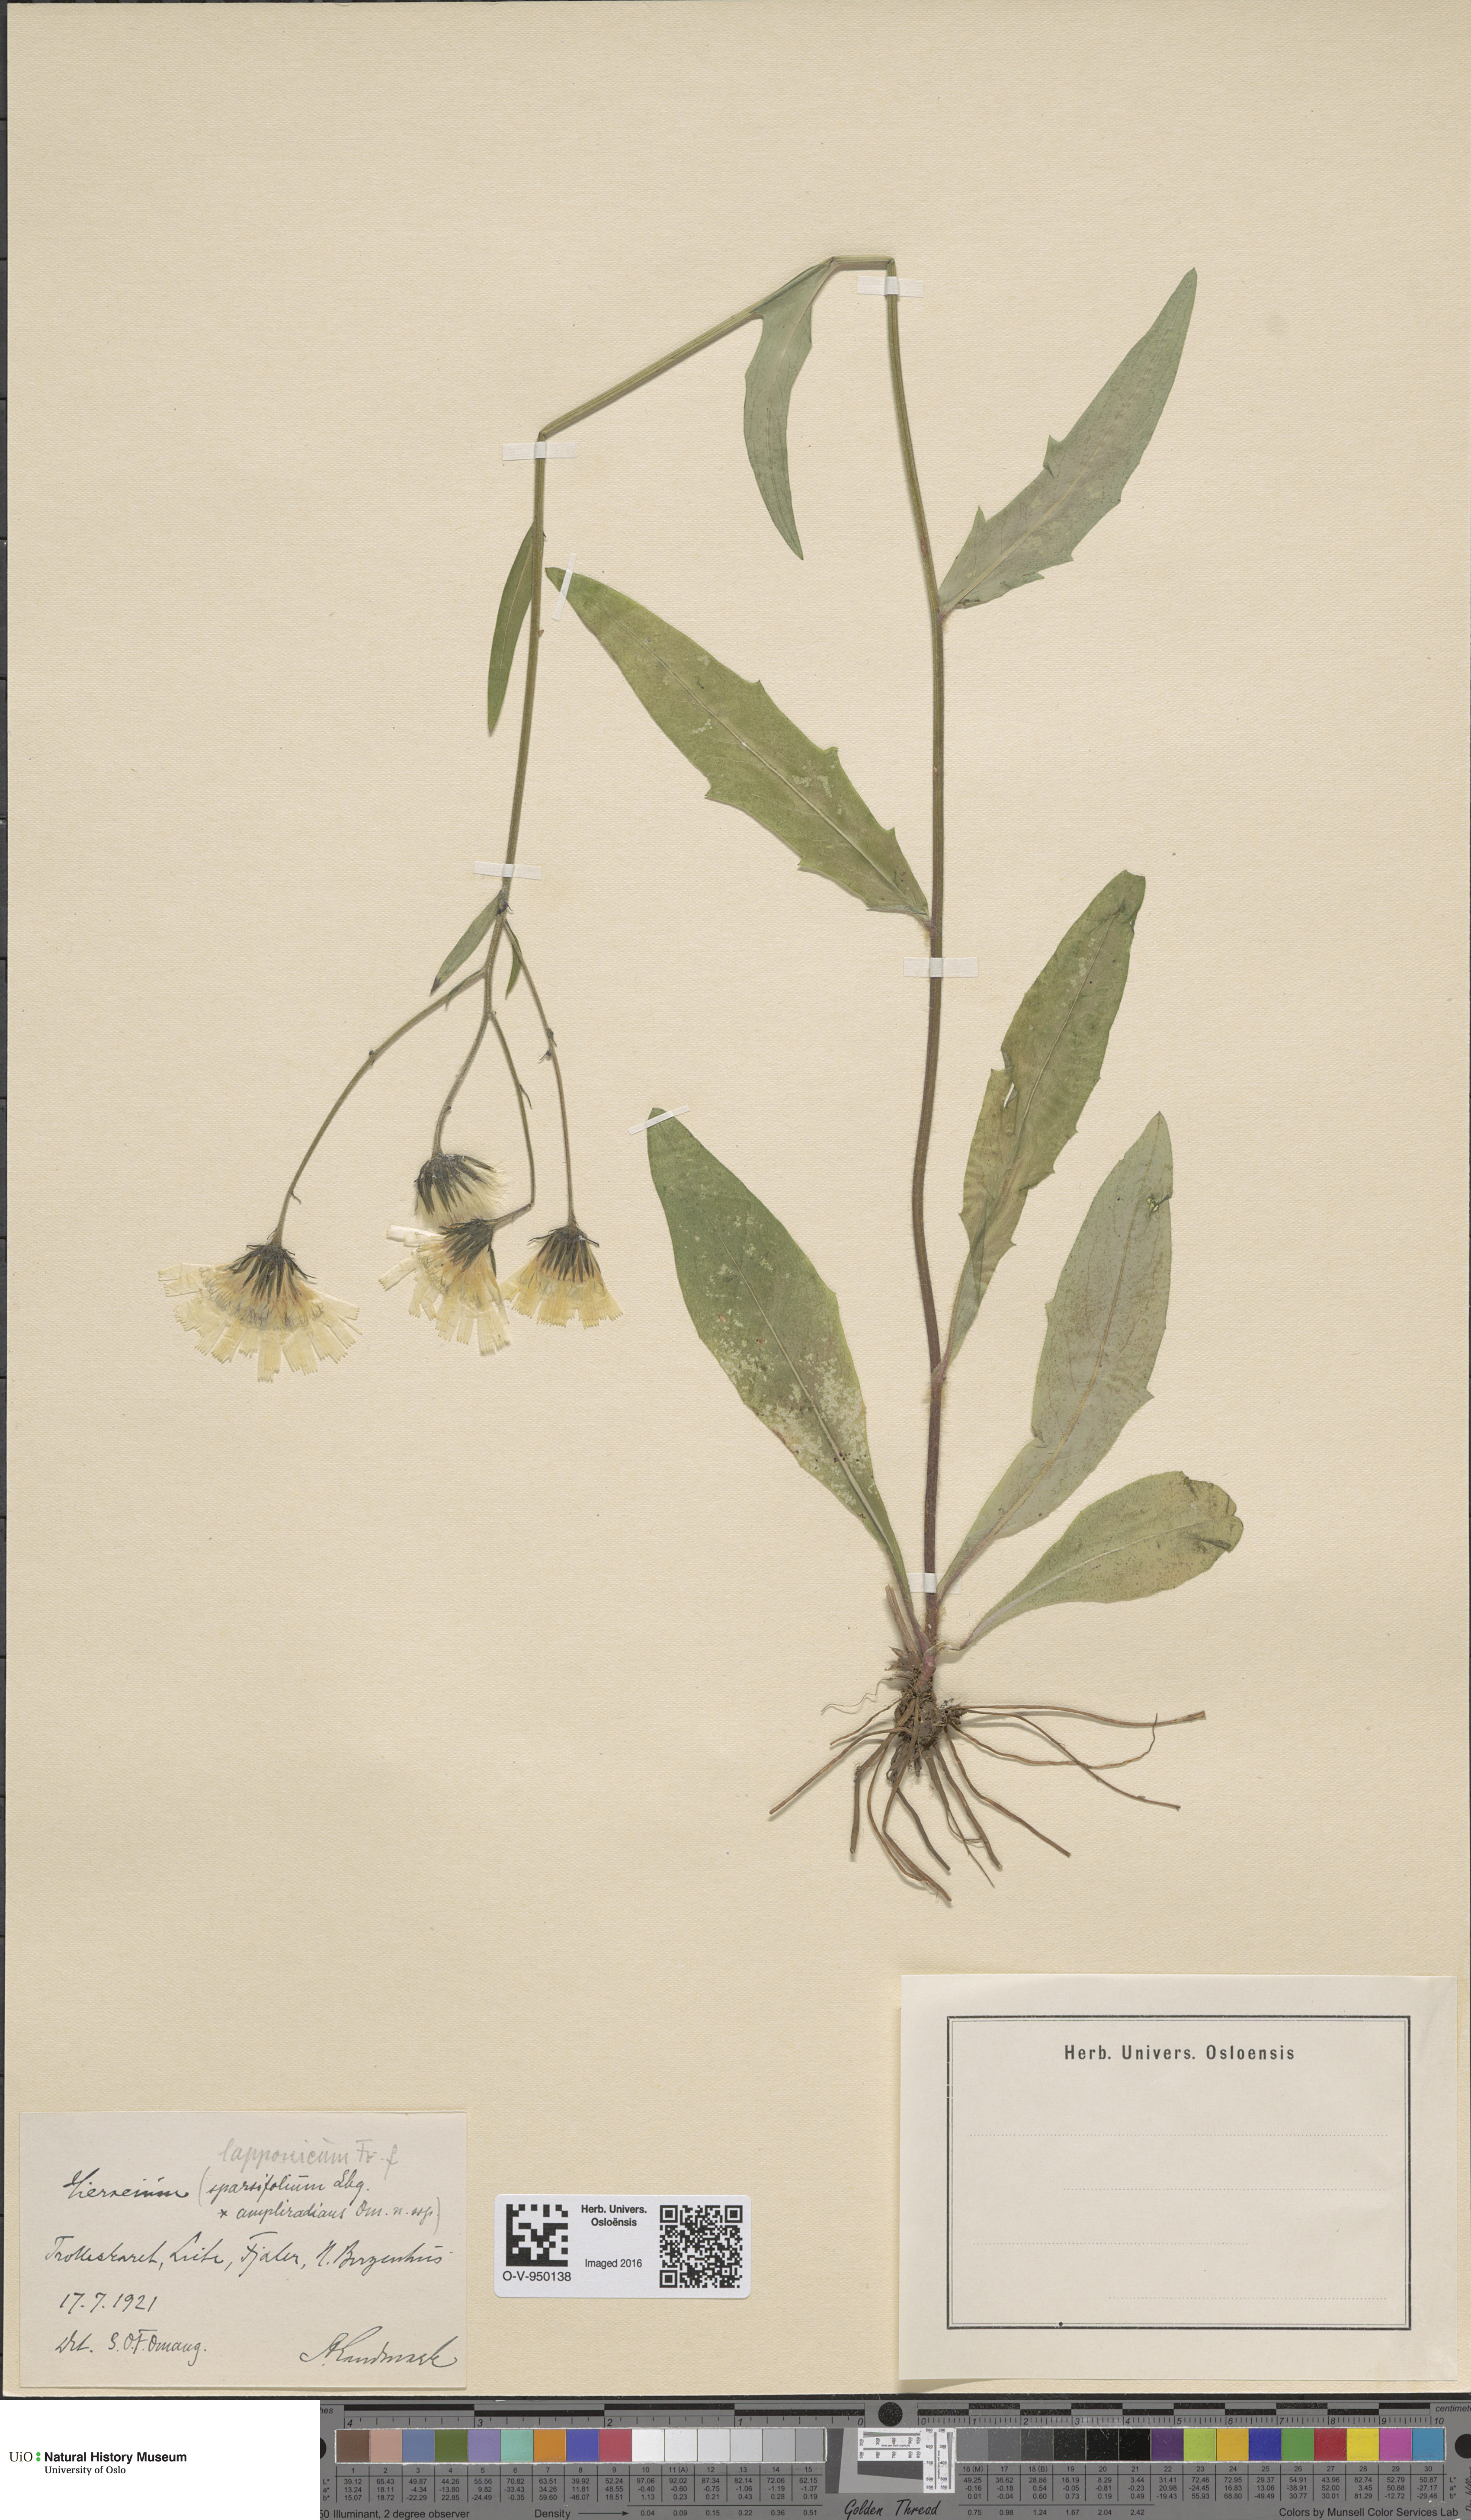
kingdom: Plantae
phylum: Tracheophyta
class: Magnoliopsida
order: Asterales
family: Asteraceae
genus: Hieracium
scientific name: Hieracium lapponicum
